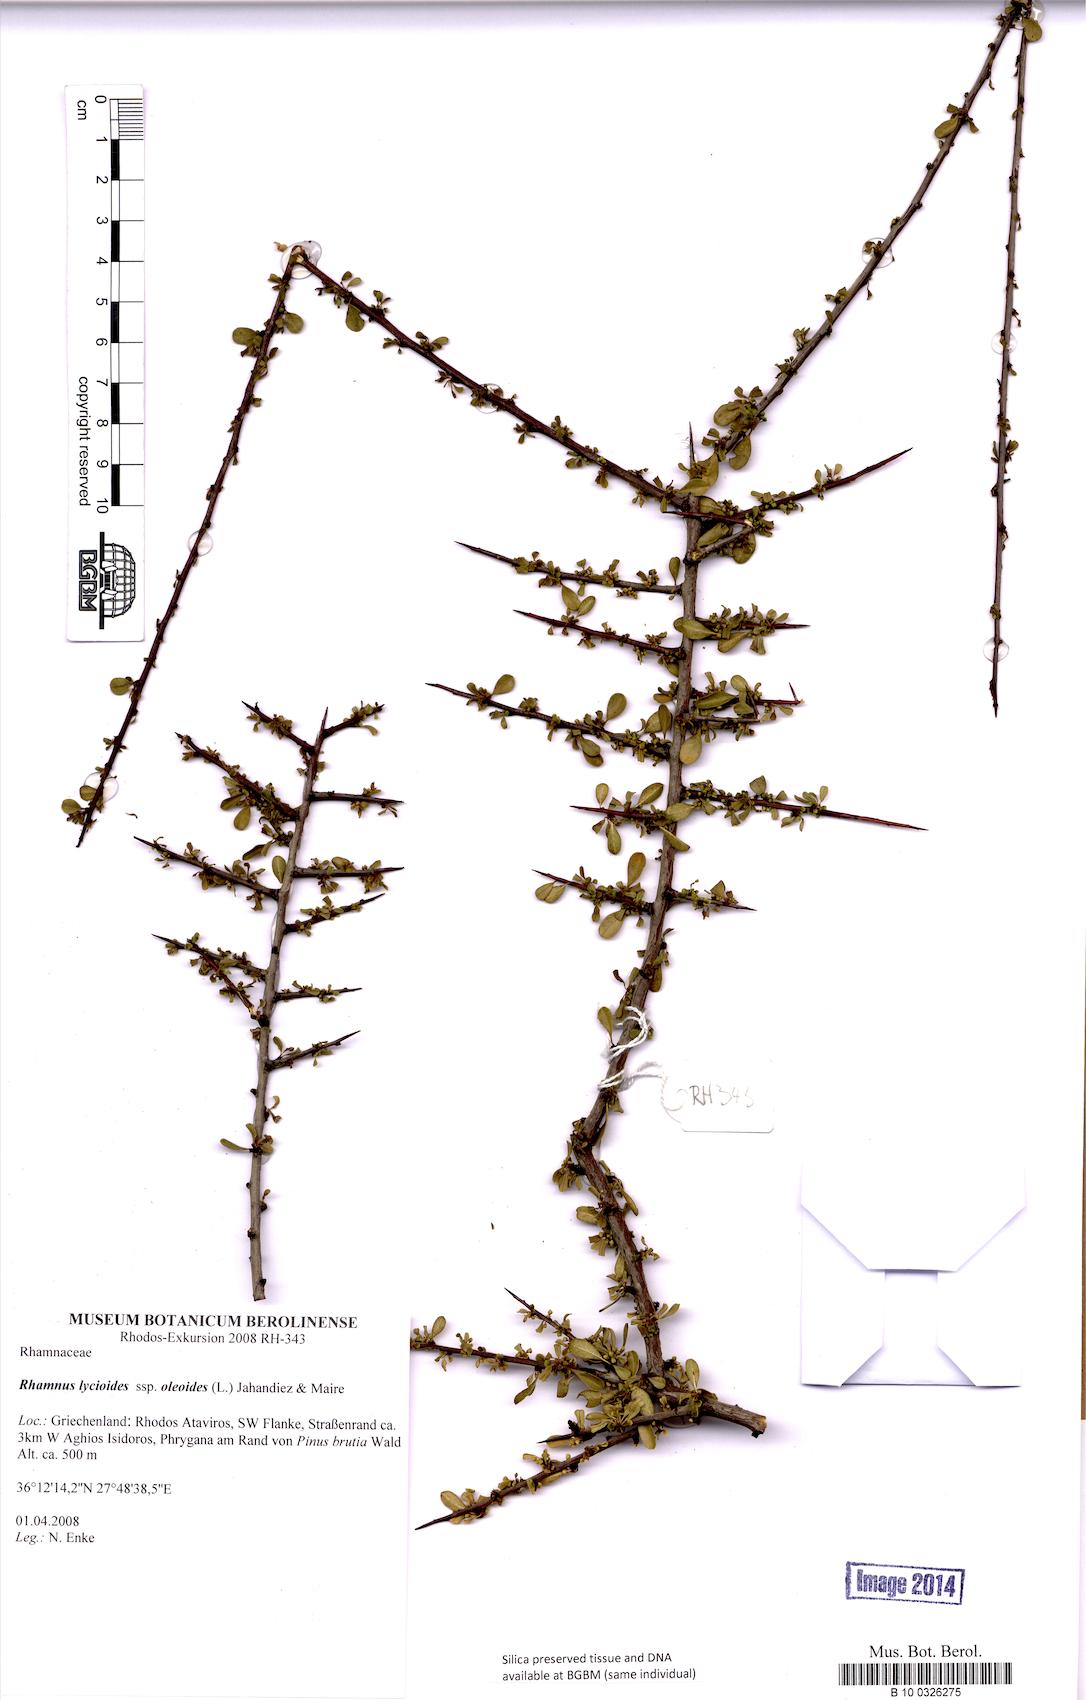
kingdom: Plantae
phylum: Tracheophyta
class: Magnoliopsida
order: Rosales
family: Rhamnaceae
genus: Rhamnus
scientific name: Rhamnus oleoides
